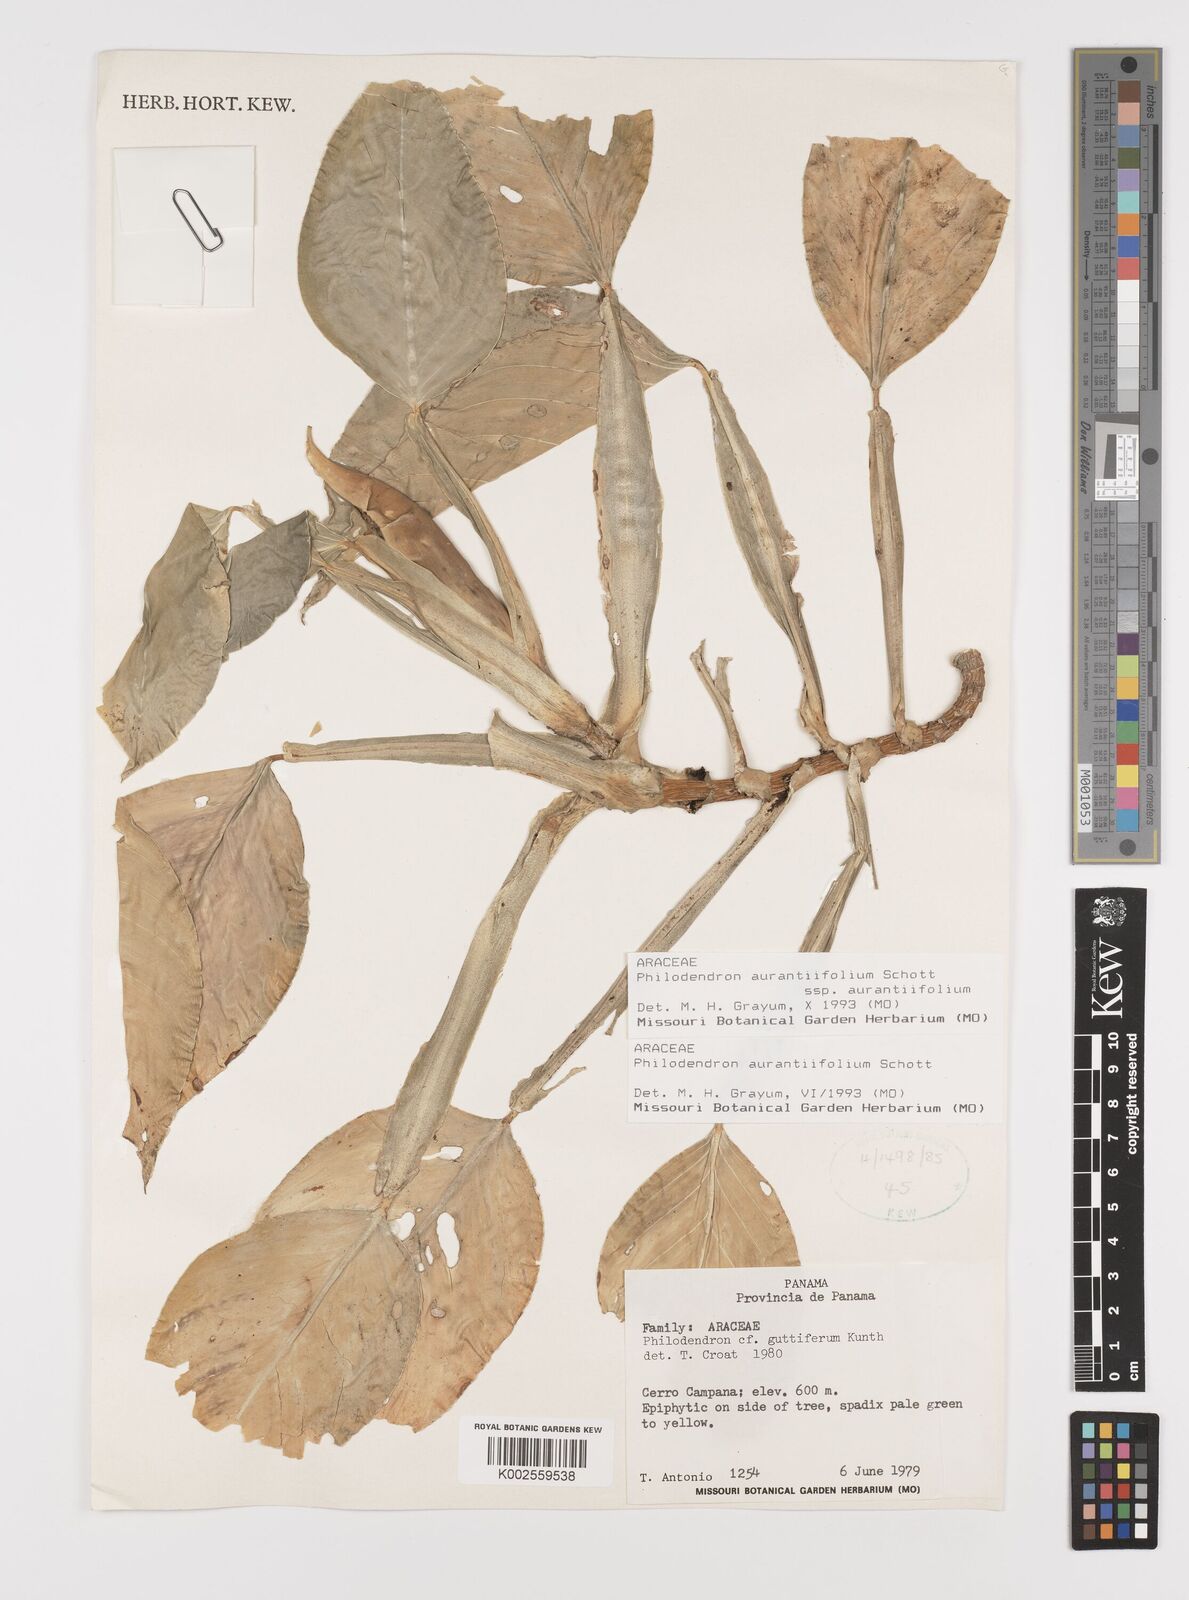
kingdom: Plantae
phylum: Tracheophyta
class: Liliopsida
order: Alismatales
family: Araceae
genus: Philodendron
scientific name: Philodendron aurantiifolium
